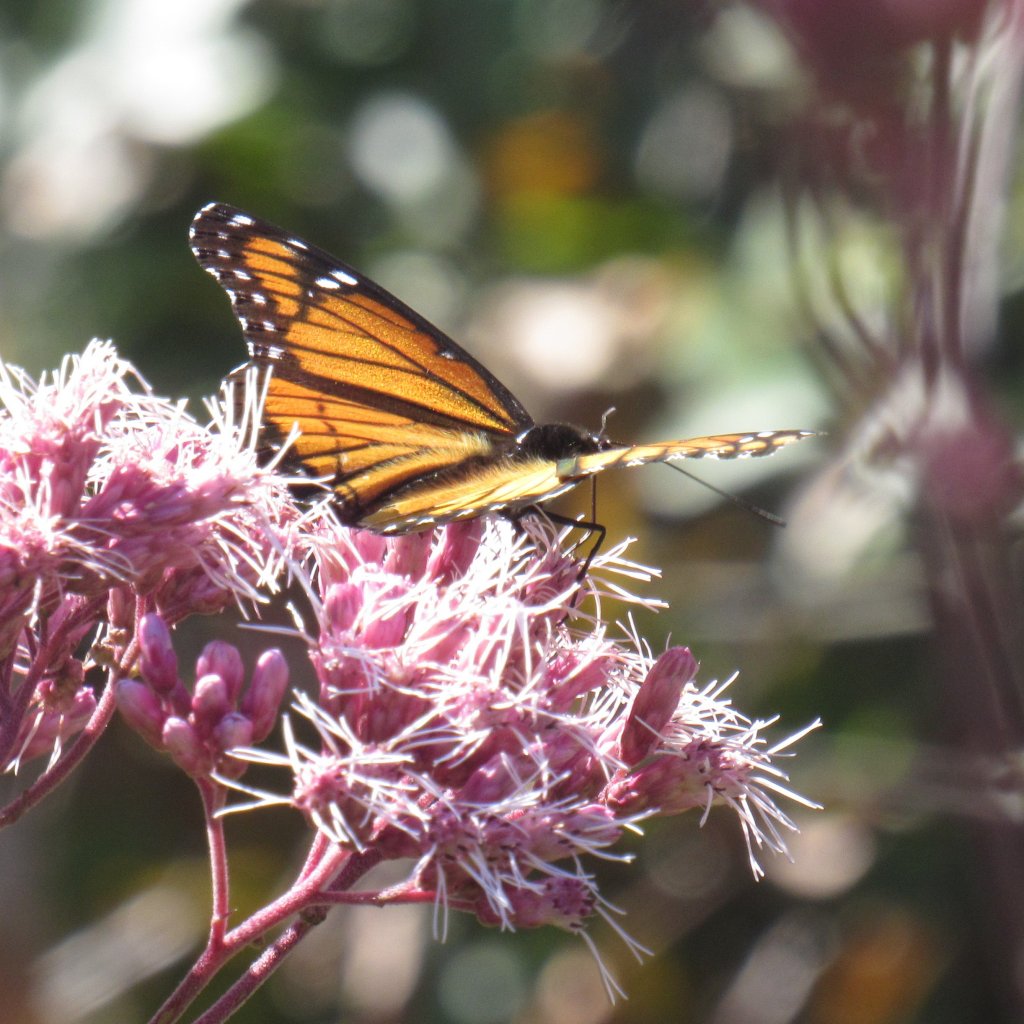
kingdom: Animalia
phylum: Arthropoda
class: Insecta
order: Lepidoptera
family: Nymphalidae
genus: Limenitis
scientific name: Limenitis archippus
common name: Viceroy
